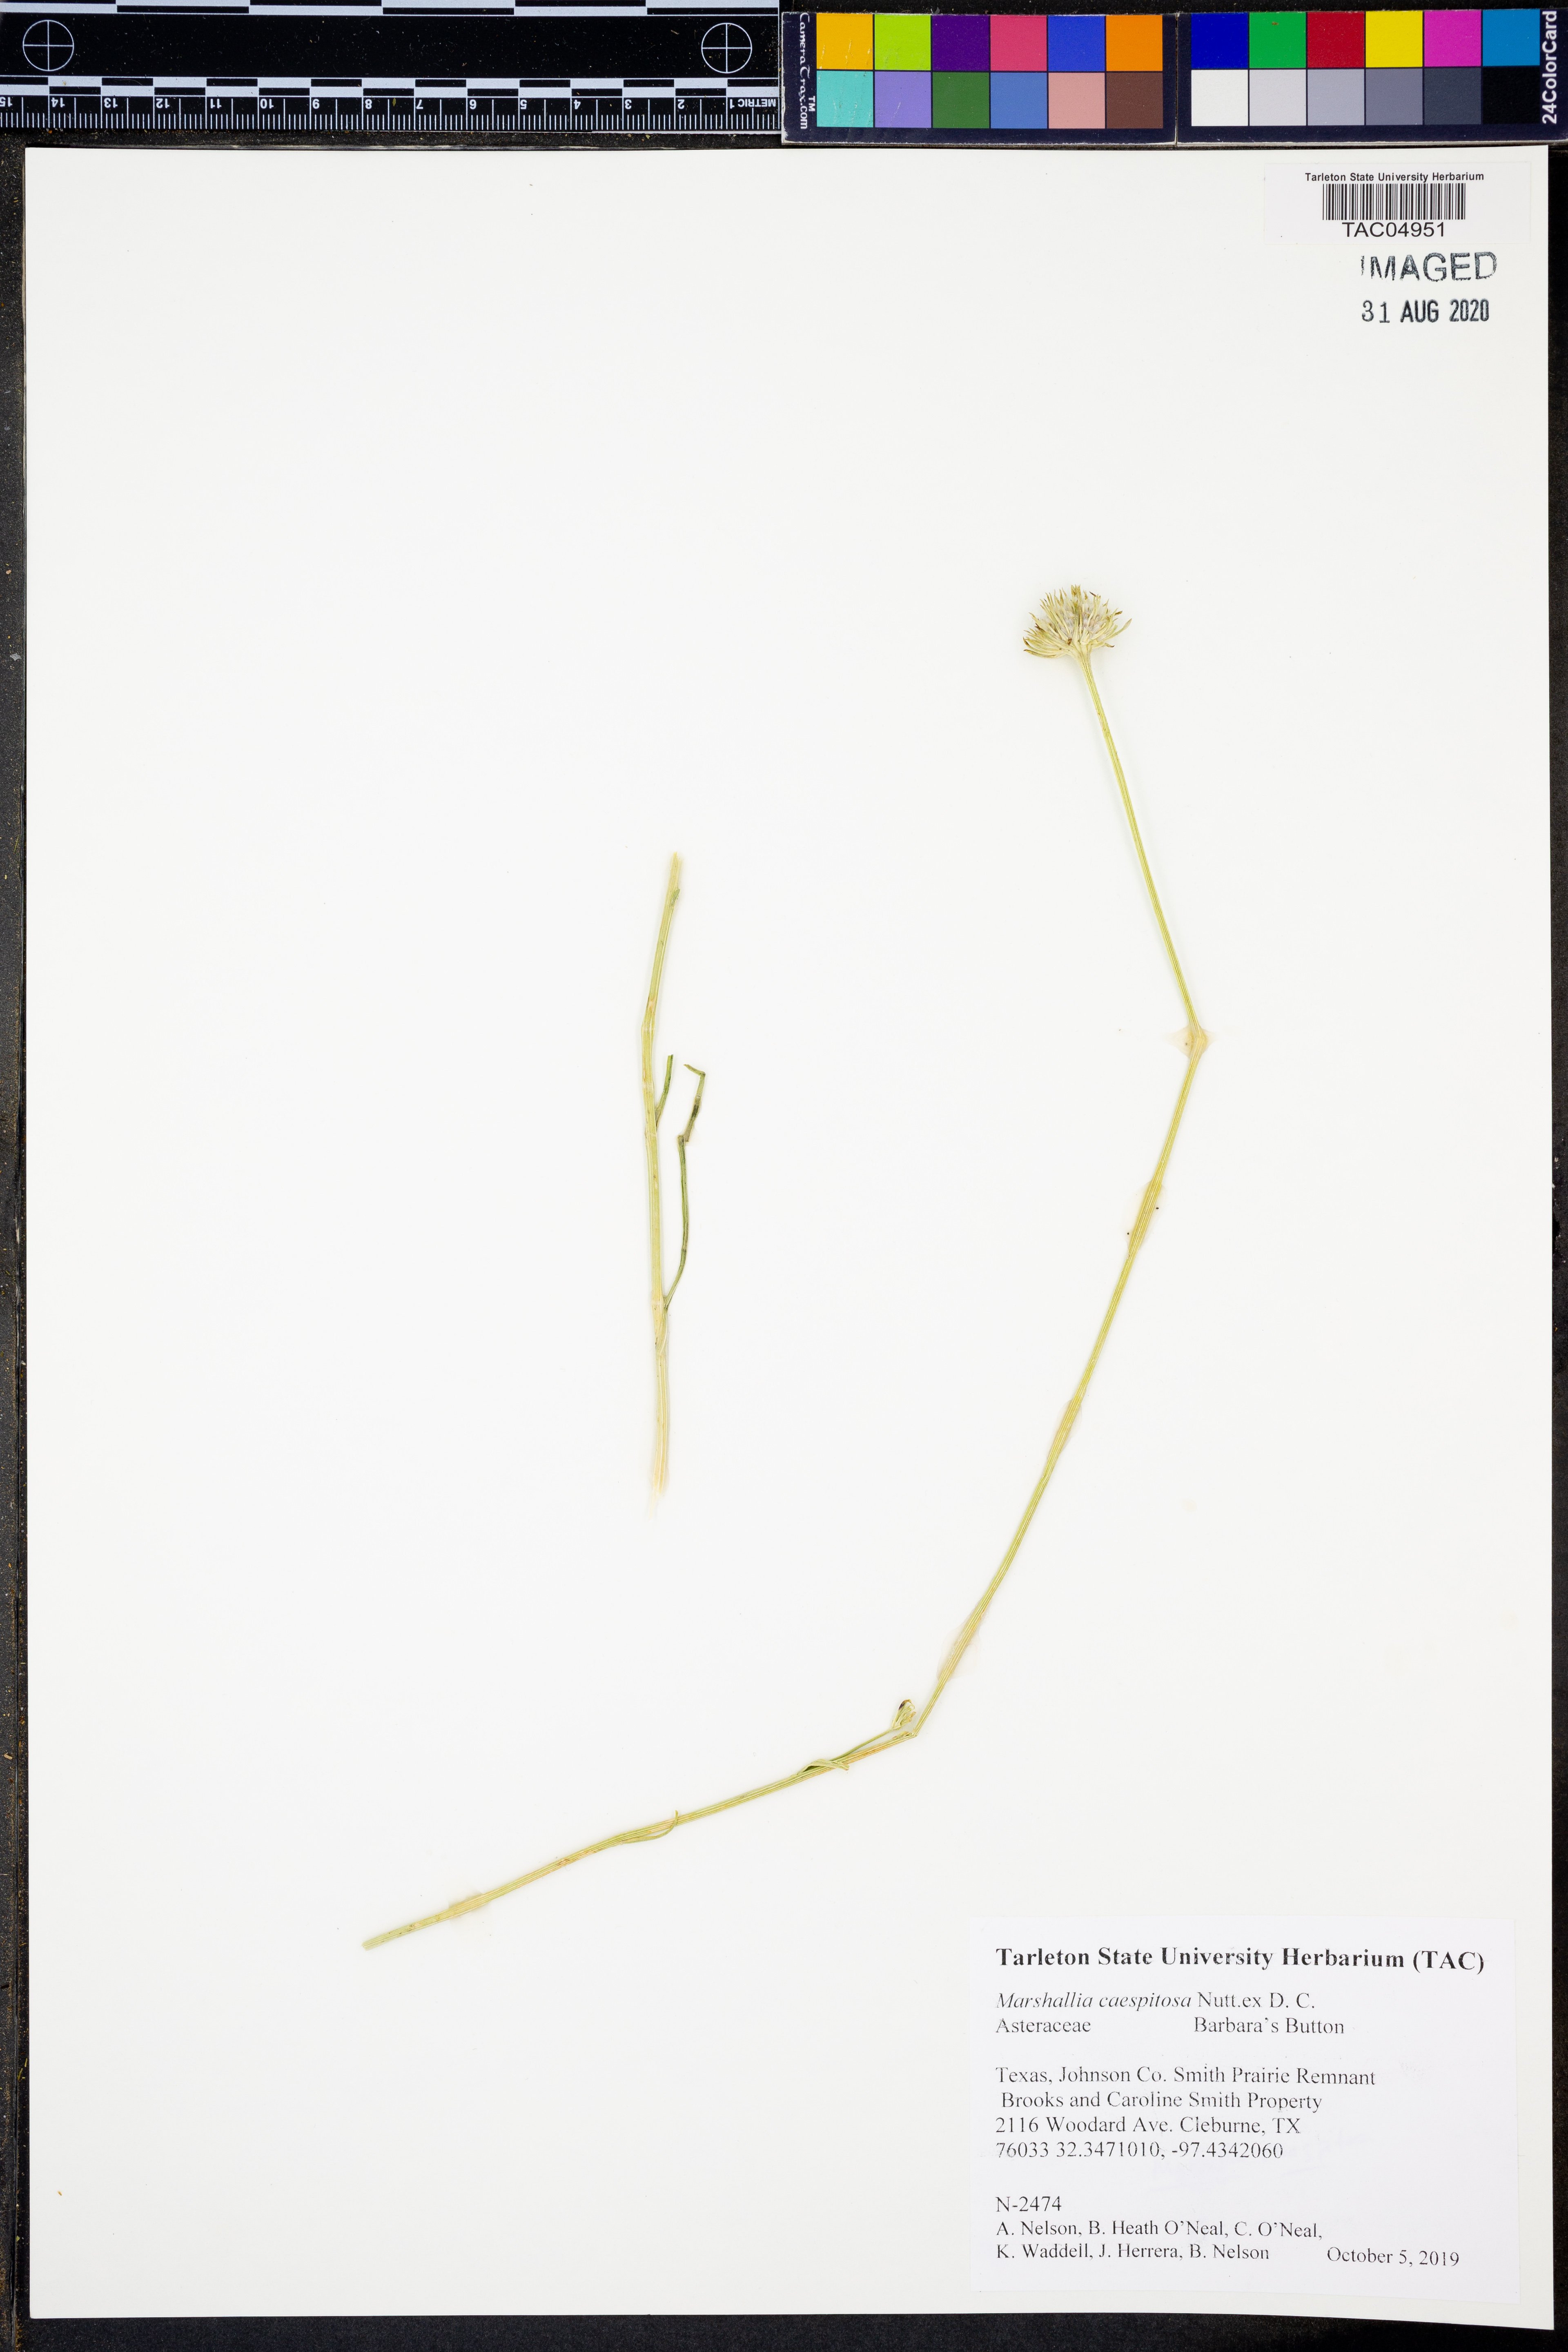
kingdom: Plantae
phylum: Tracheophyta
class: Magnoliopsida
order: Asterales
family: Asteraceae
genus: Marshallia
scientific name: Marshallia caespitosa
